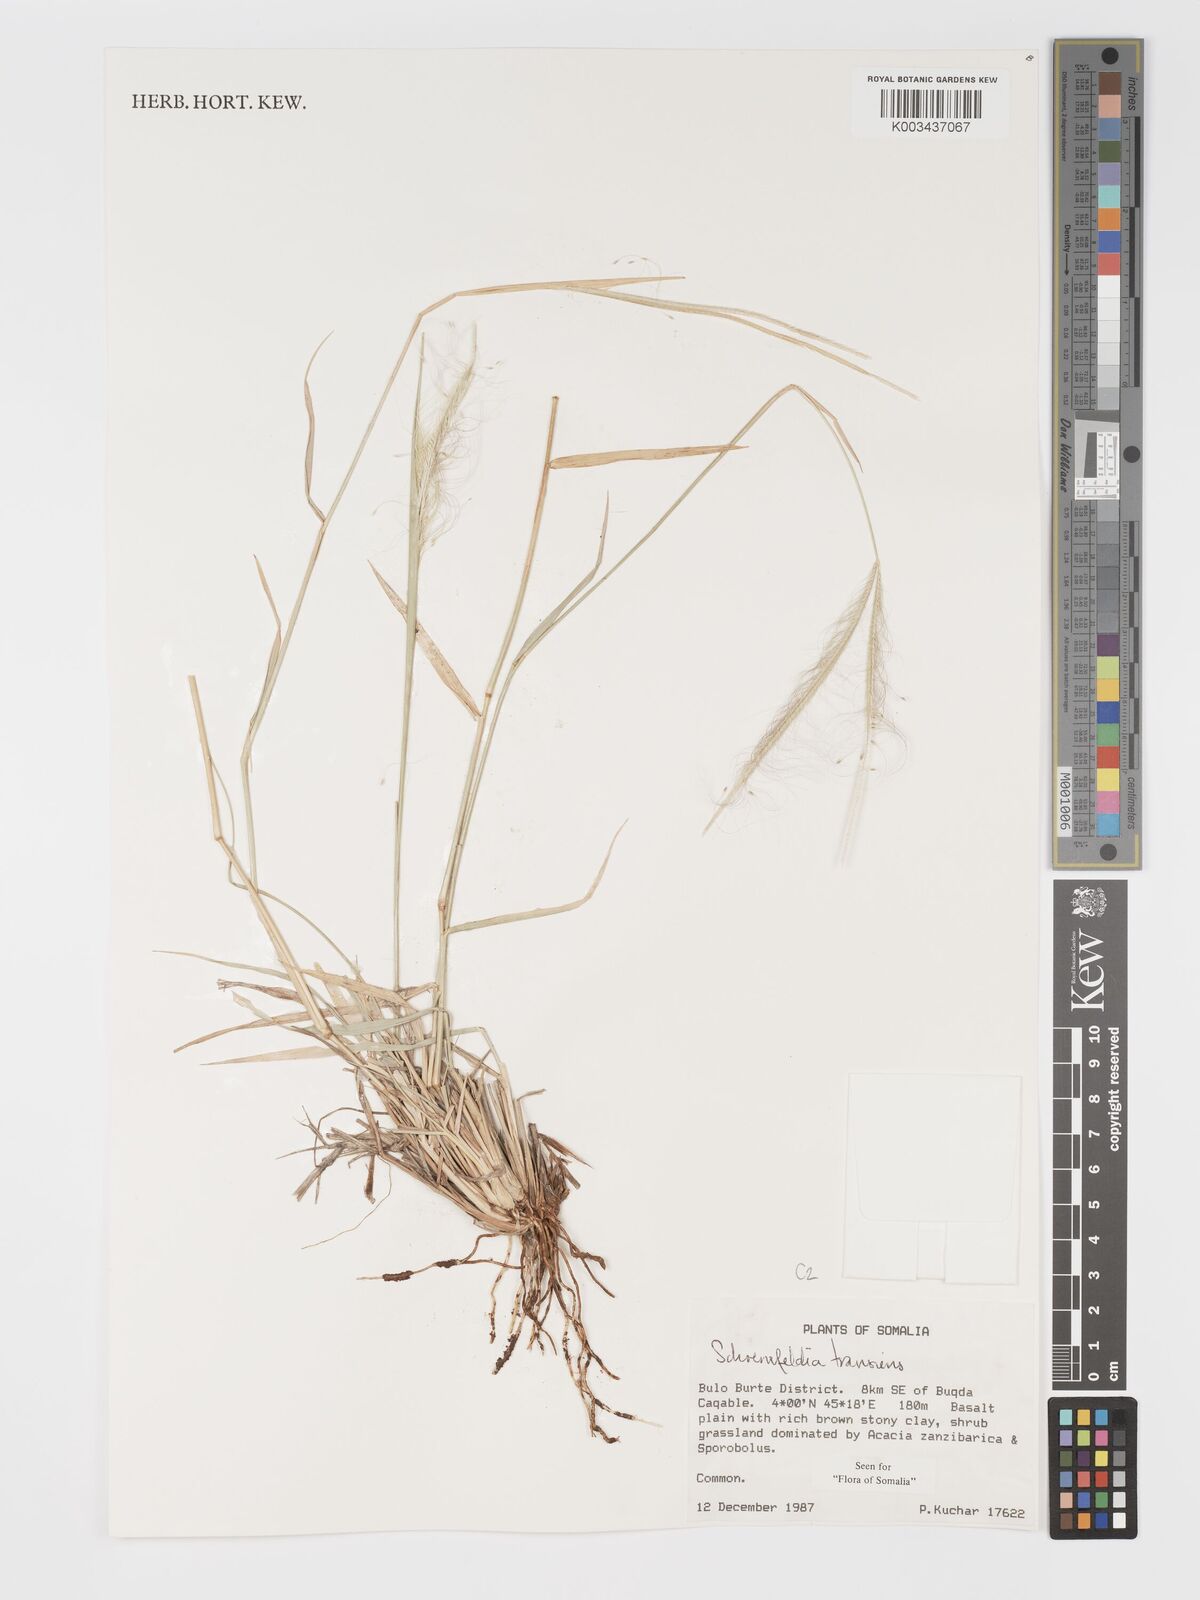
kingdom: Plantae
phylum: Tracheophyta
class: Liliopsida
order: Poales
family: Poaceae
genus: Schoenefeldia
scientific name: Schoenefeldia transiens
